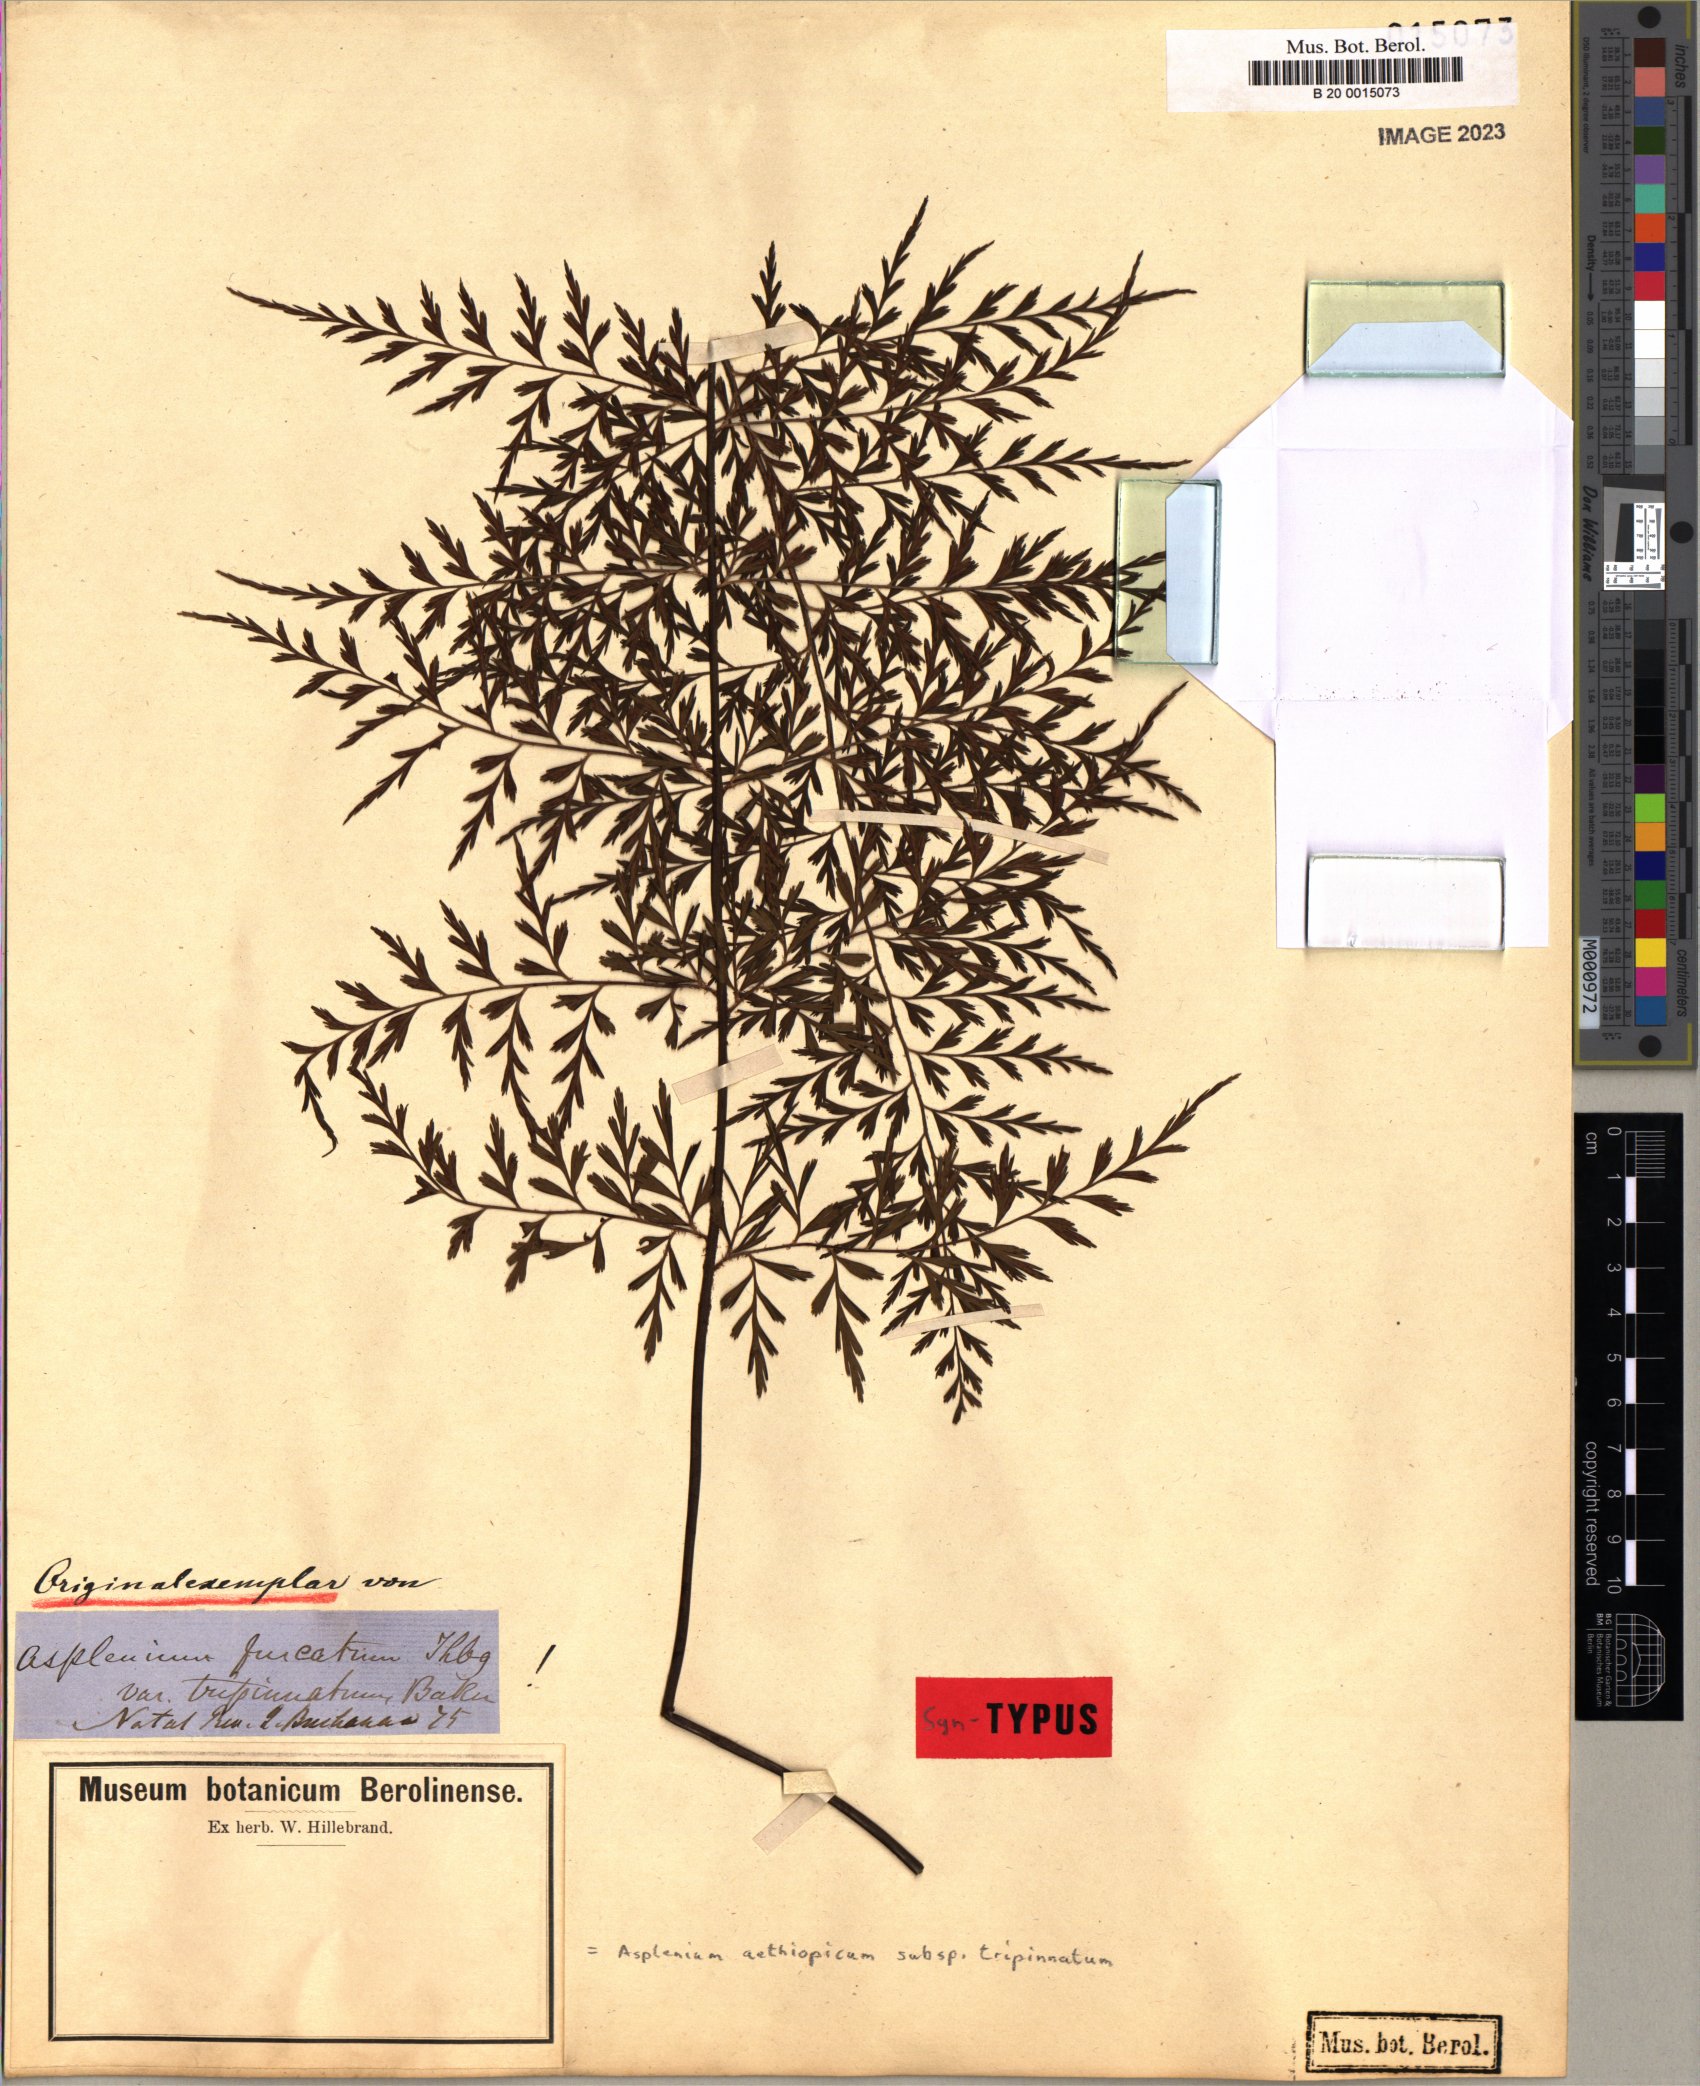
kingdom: Plantae
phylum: Tracheophyta
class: Polypodiopsida
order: Polypodiales
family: Aspleniaceae
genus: Asplenium
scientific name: Asplenium aethiopicum
